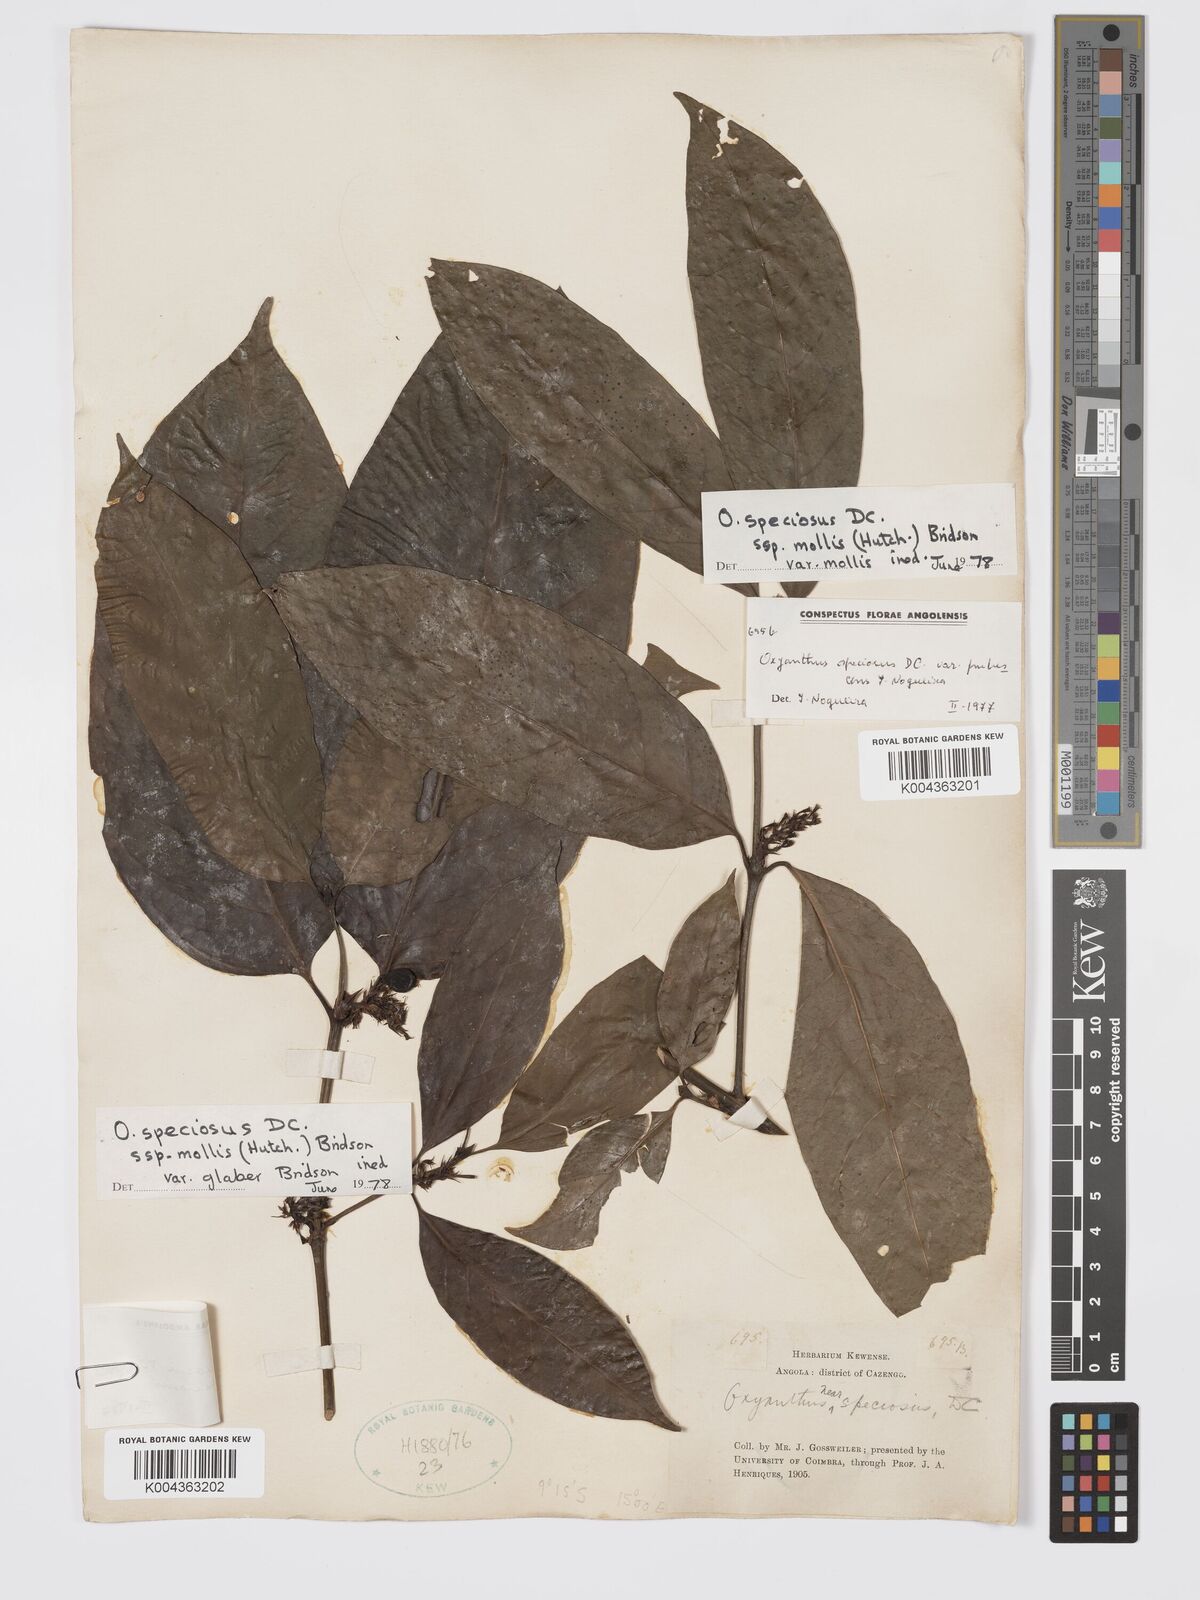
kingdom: Plantae
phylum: Tracheophyta
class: Magnoliopsida
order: Gentianales
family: Rubiaceae
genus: Oxyanthus
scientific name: Oxyanthus speciosus
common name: Whipstick loquat
